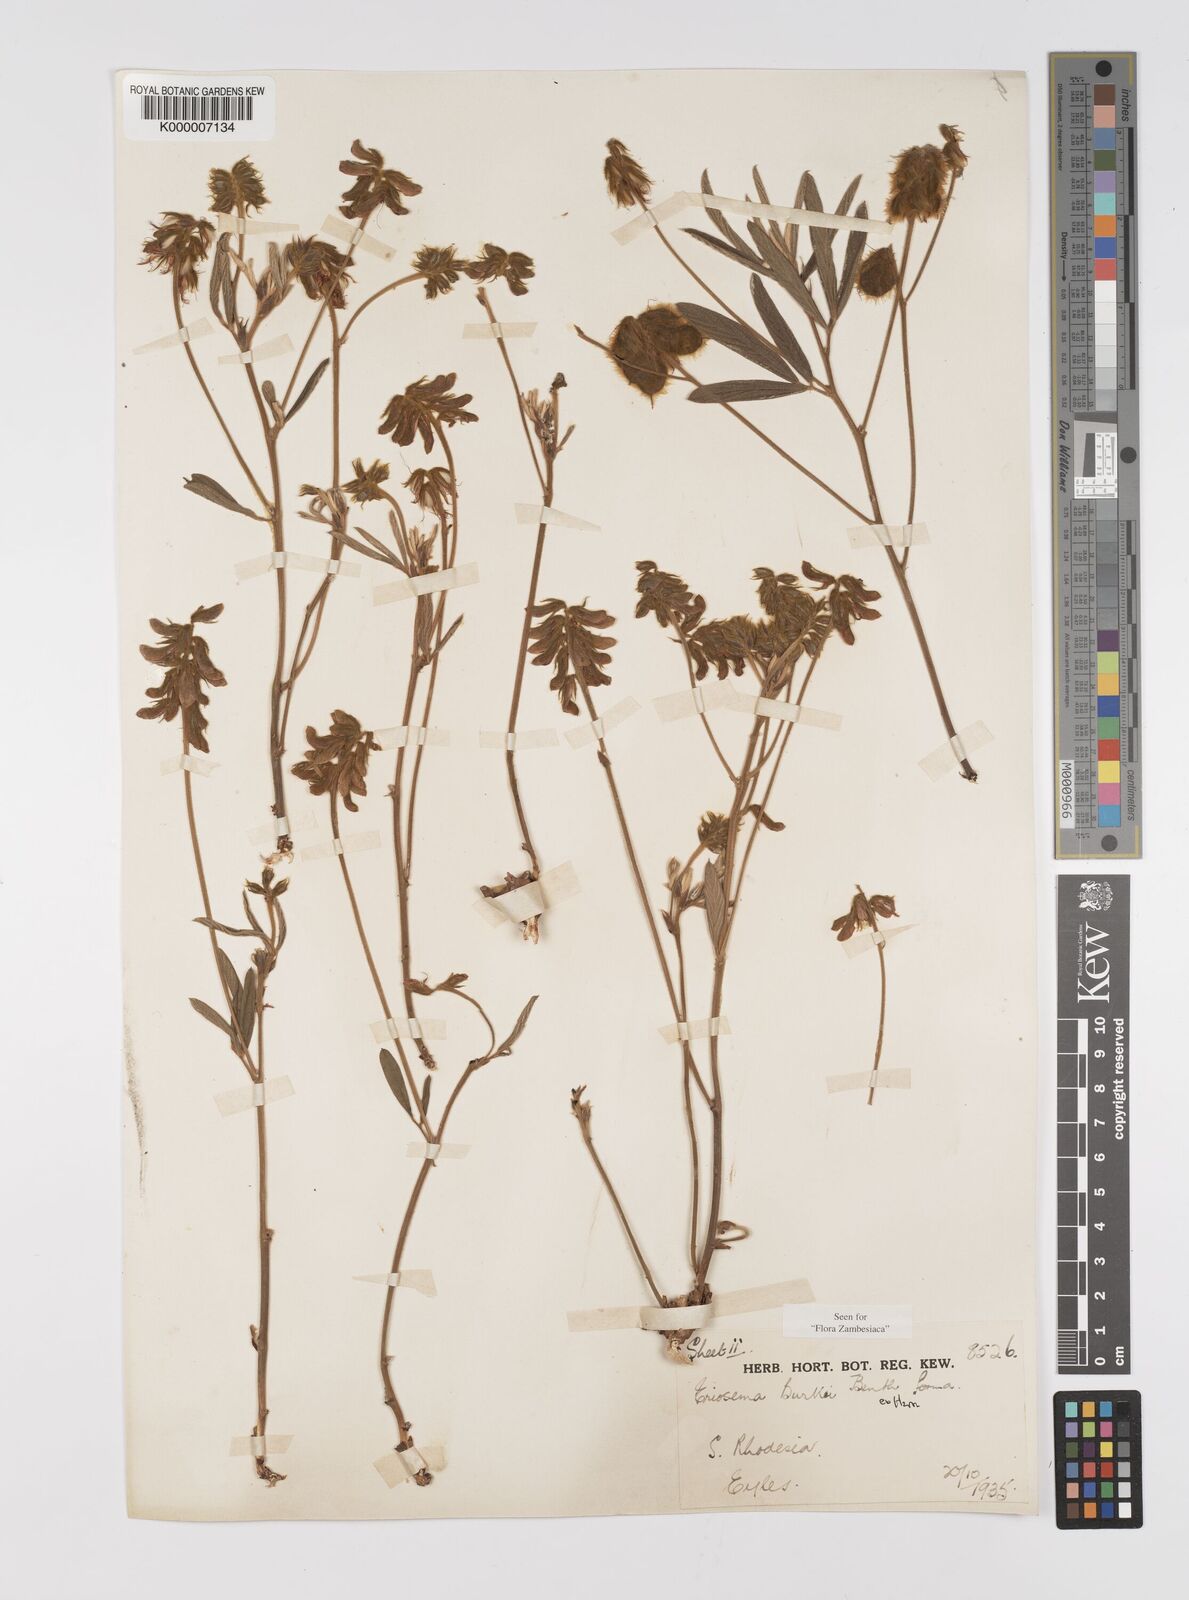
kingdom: Plantae
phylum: Tracheophyta
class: Magnoliopsida
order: Fabales
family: Fabaceae
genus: Eriosema
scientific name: Eriosema burkei
